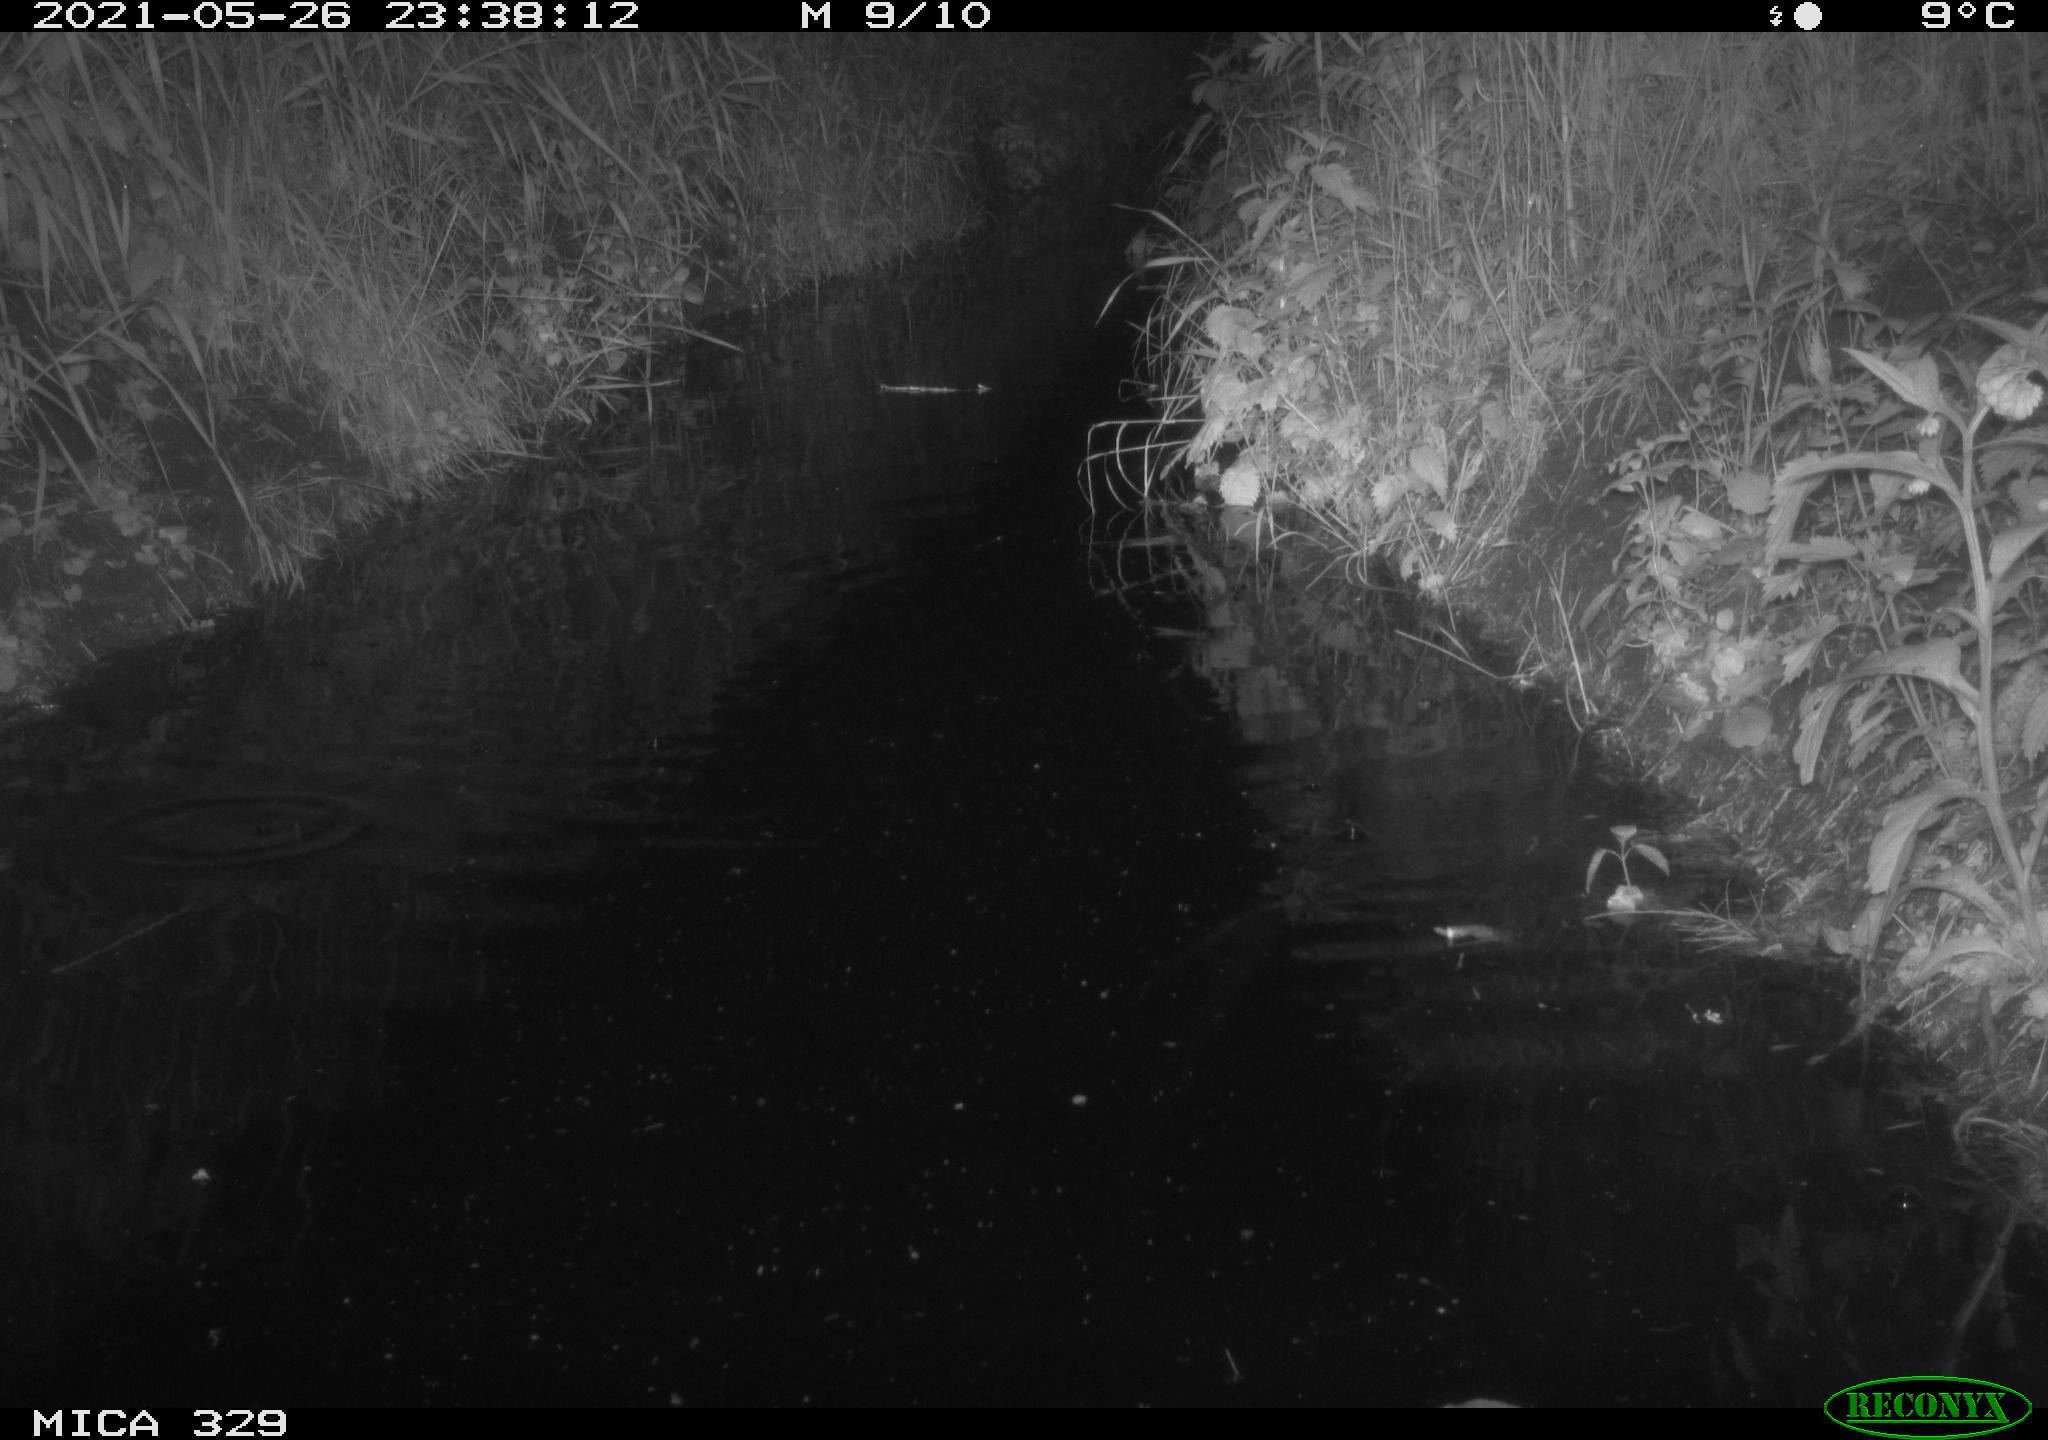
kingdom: Animalia
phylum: Chordata
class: Mammalia
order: Rodentia
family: Muridae
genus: Rattus
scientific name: Rattus norvegicus
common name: Brown rat
